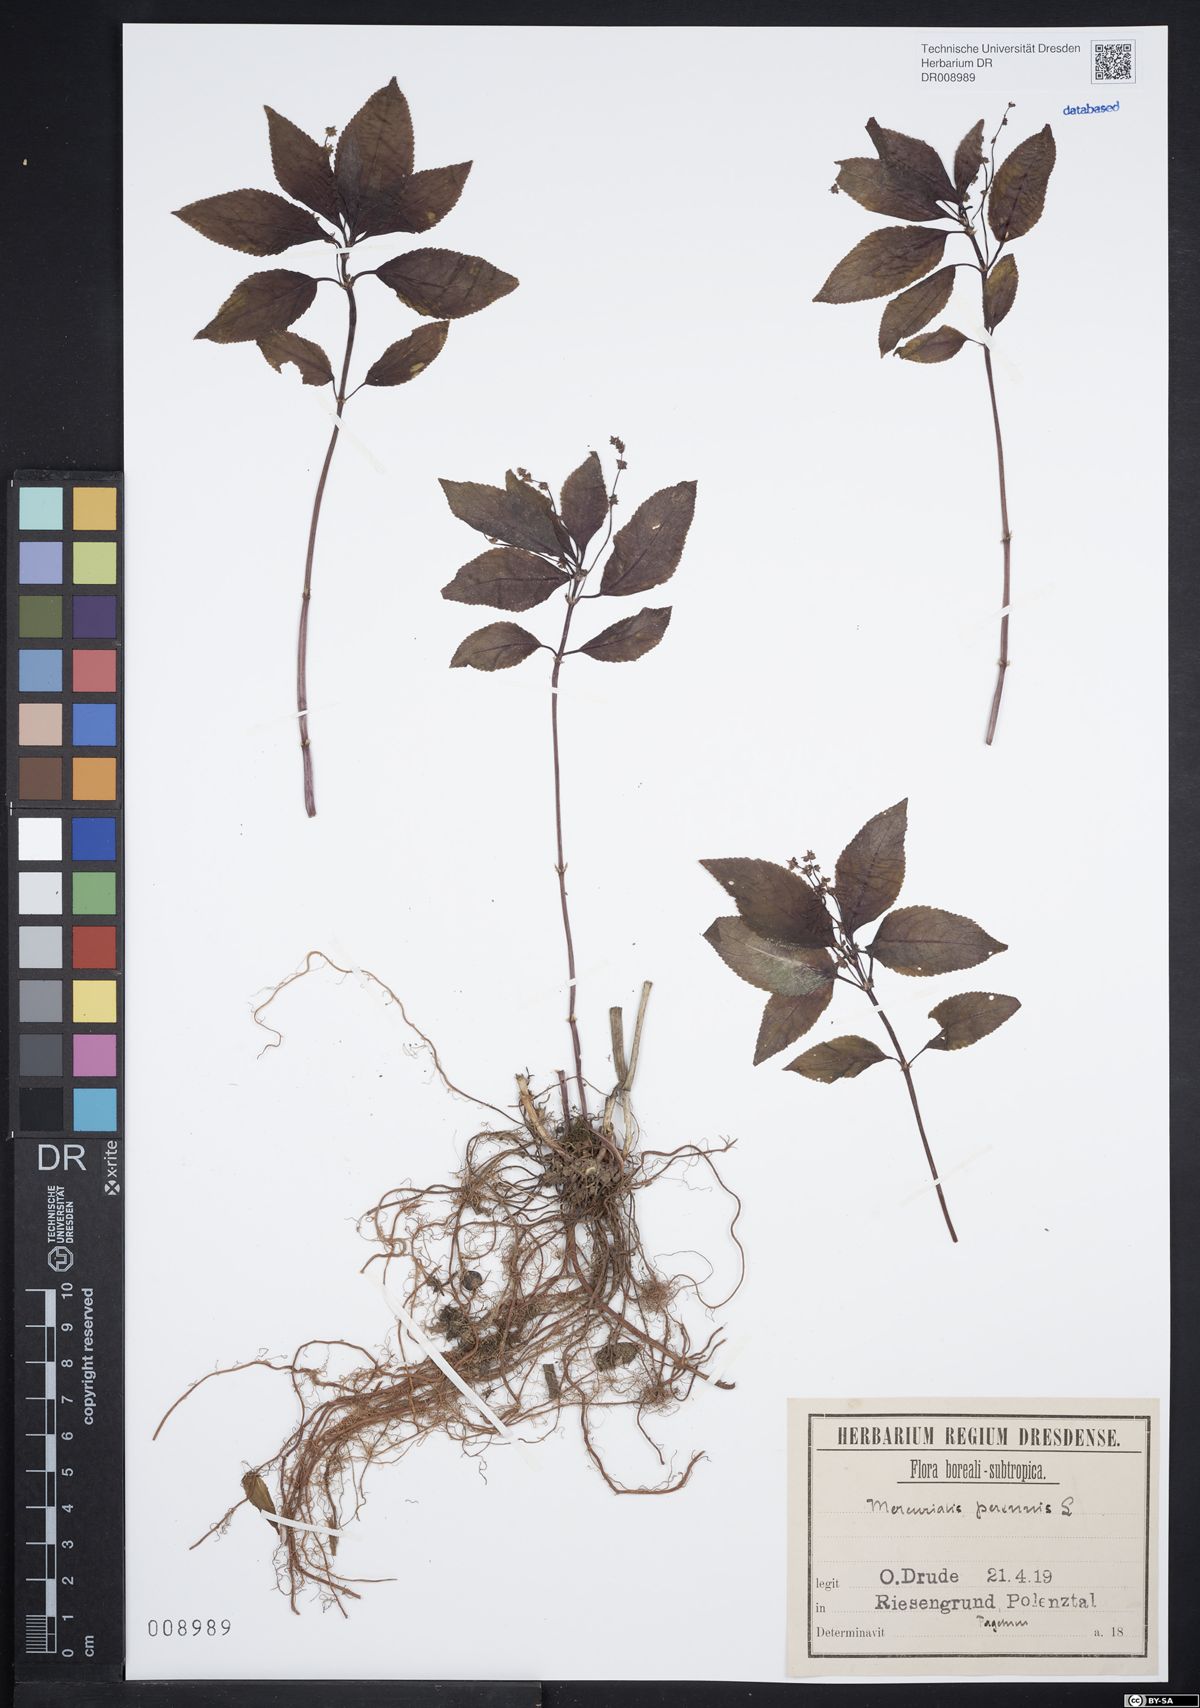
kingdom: Plantae
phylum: Tracheophyta
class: Magnoliopsida
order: Malpighiales
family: Euphorbiaceae
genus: Mercurialis
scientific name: Mercurialis perennis
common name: Dog mercury
